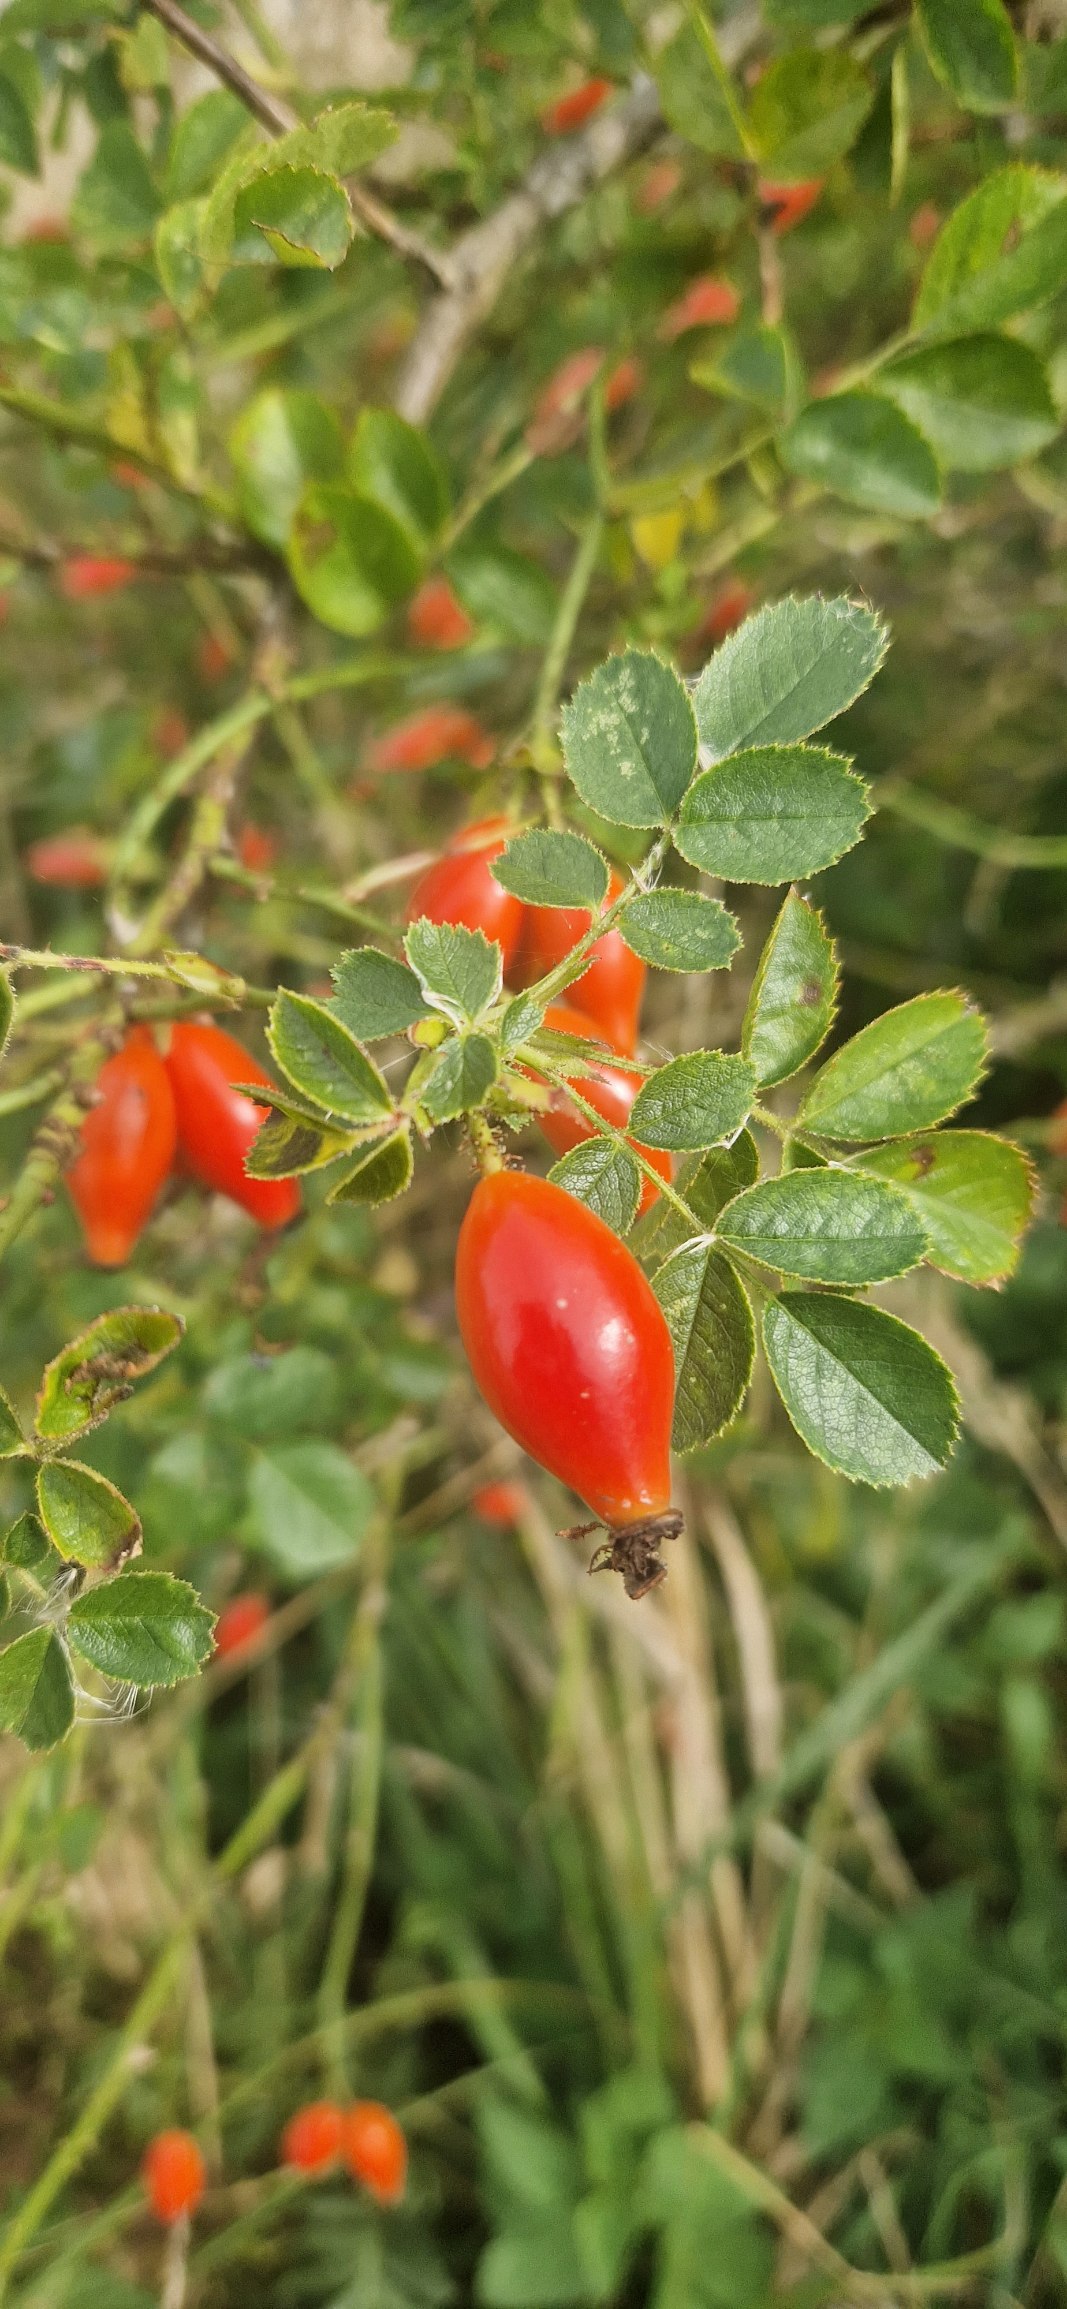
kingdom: Plantae
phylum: Tracheophyta
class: Magnoliopsida
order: Rosales
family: Rosaceae
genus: Rosa
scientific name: Rosa rubiginosa
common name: Æble-rose
